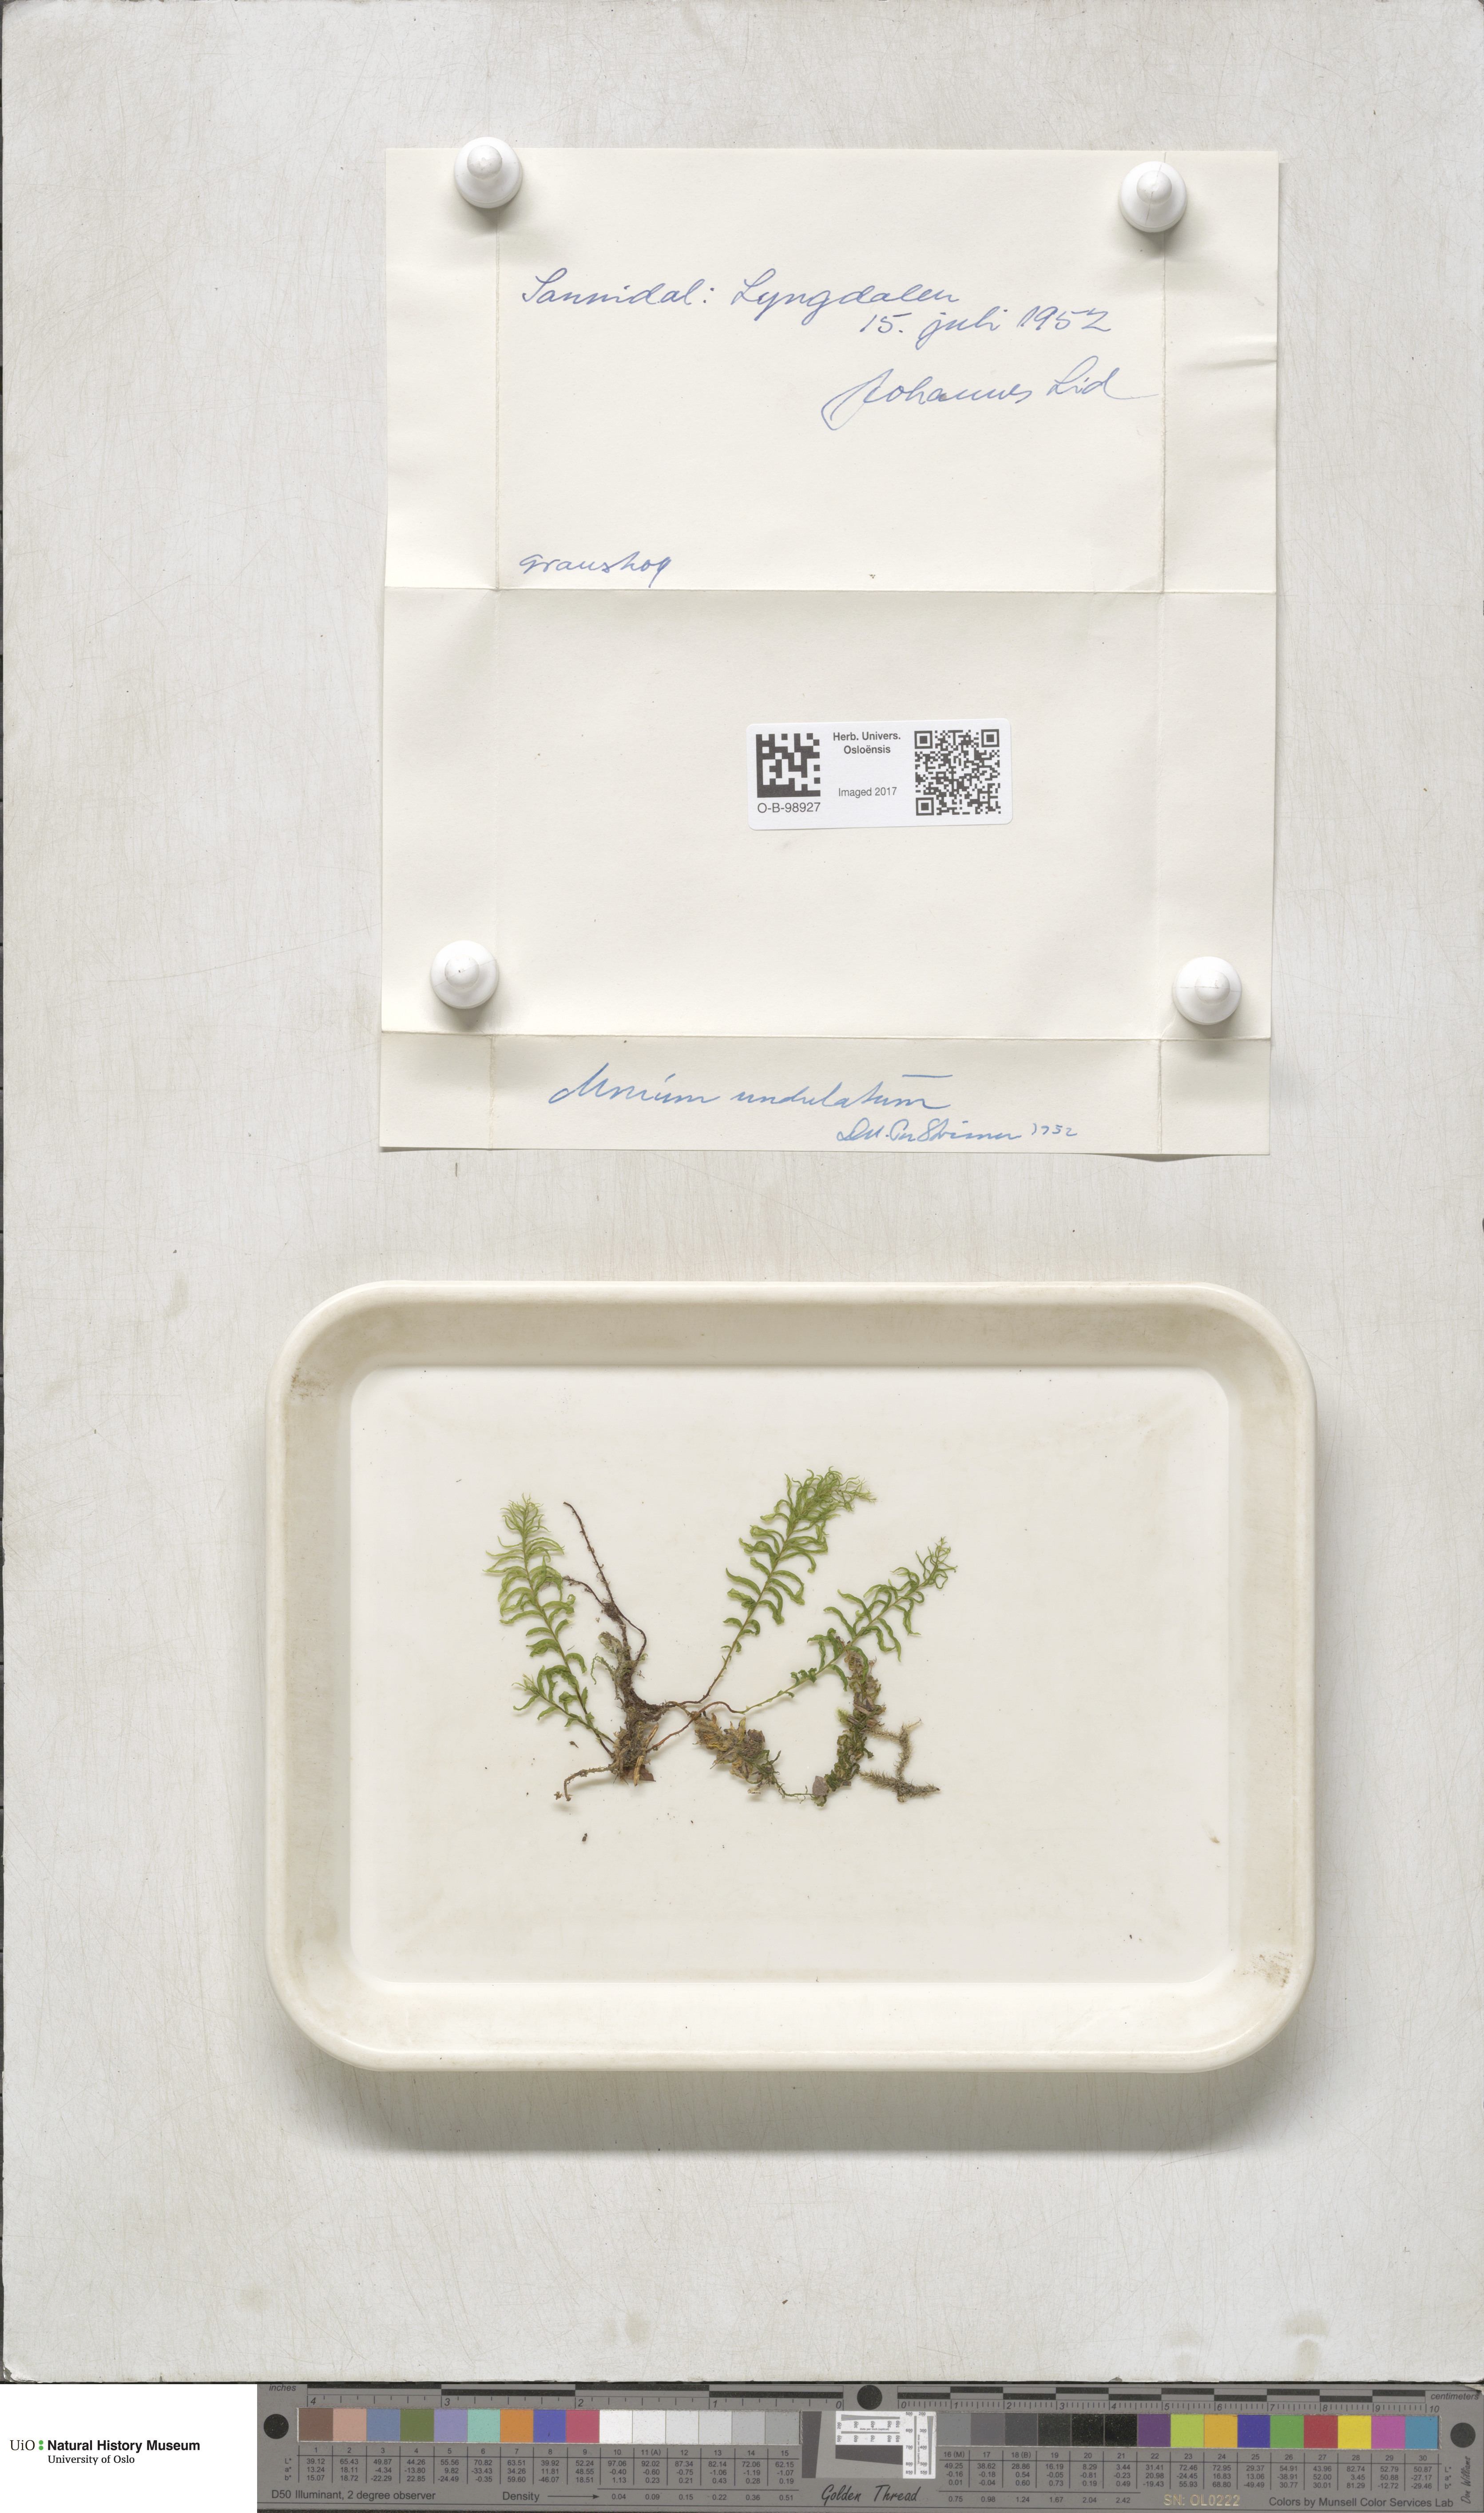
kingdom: Plantae
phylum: Bryophyta
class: Bryopsida
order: Bryales
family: Mniaceae
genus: Plagiomnium
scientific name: Plagiomnium undulatum
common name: Hart's-tongue thyme-moss
